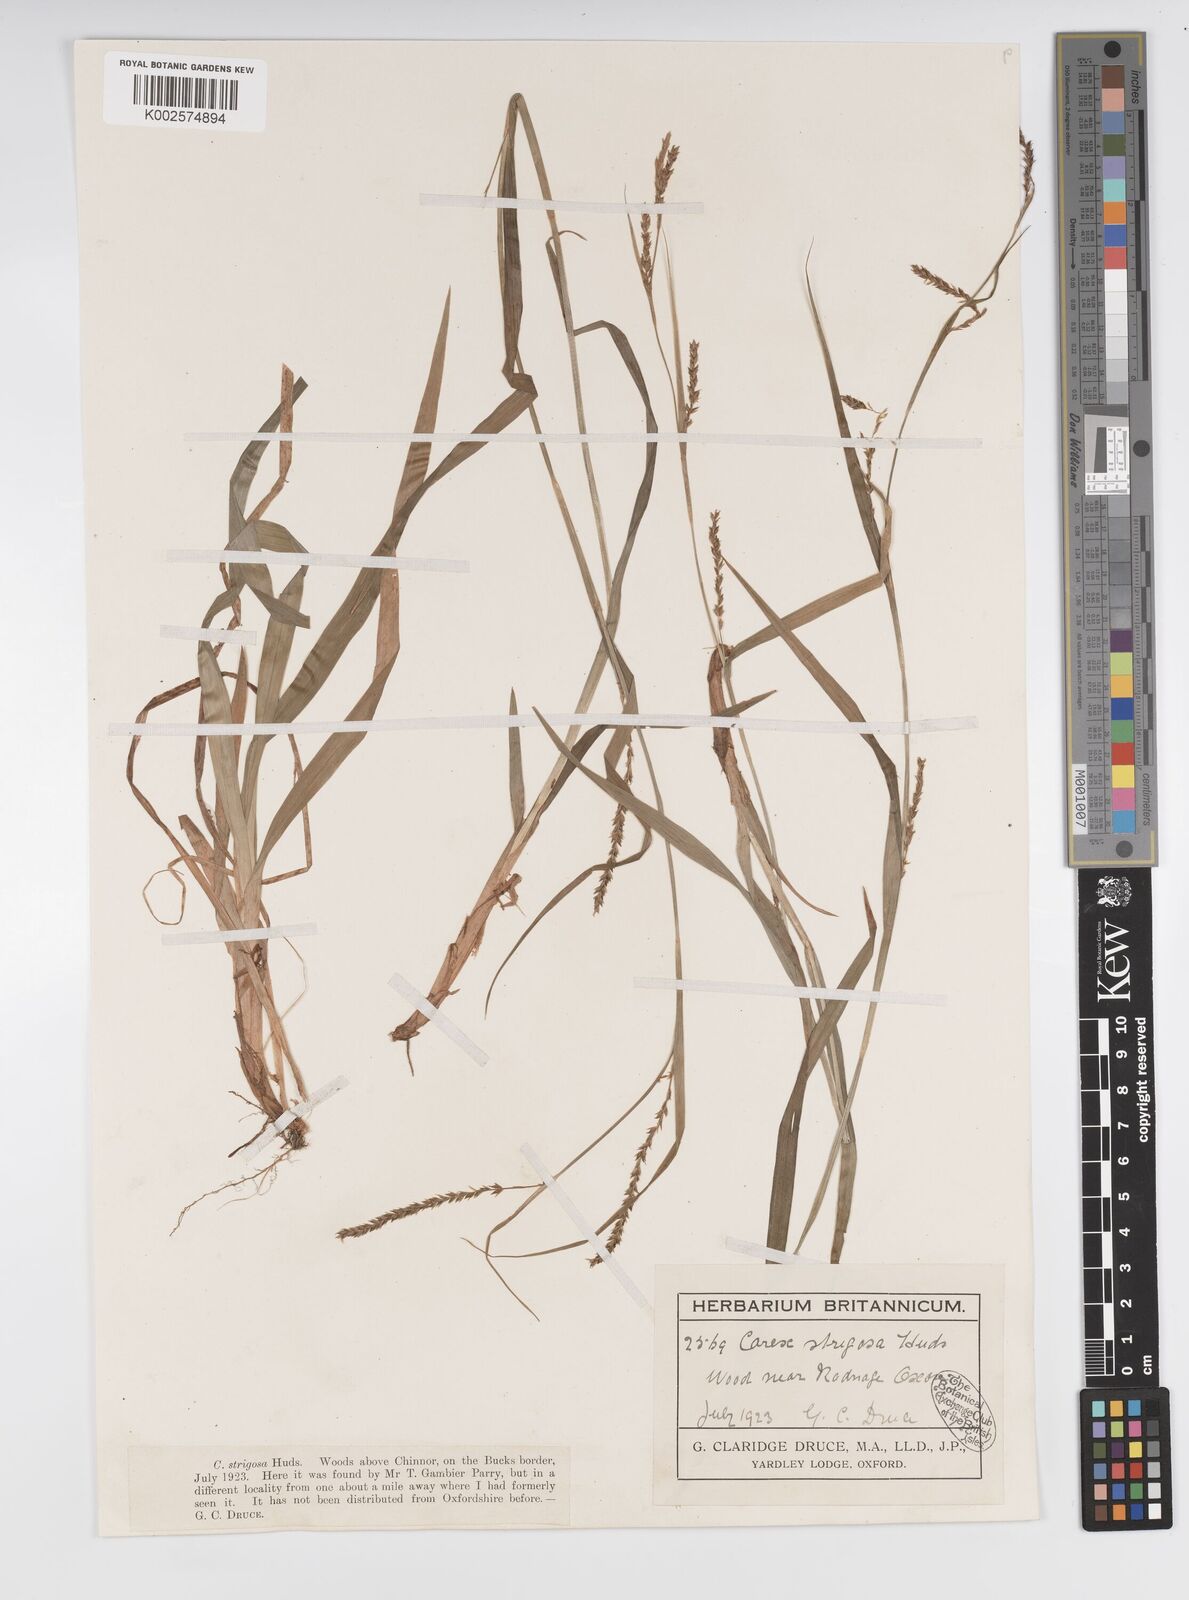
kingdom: Plantae
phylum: Tracheophyta
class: Liliopsida
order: Poales
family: Cyperaceae
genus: Carex
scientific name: Carex strigosa
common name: Thin-spiked wood-sedge
